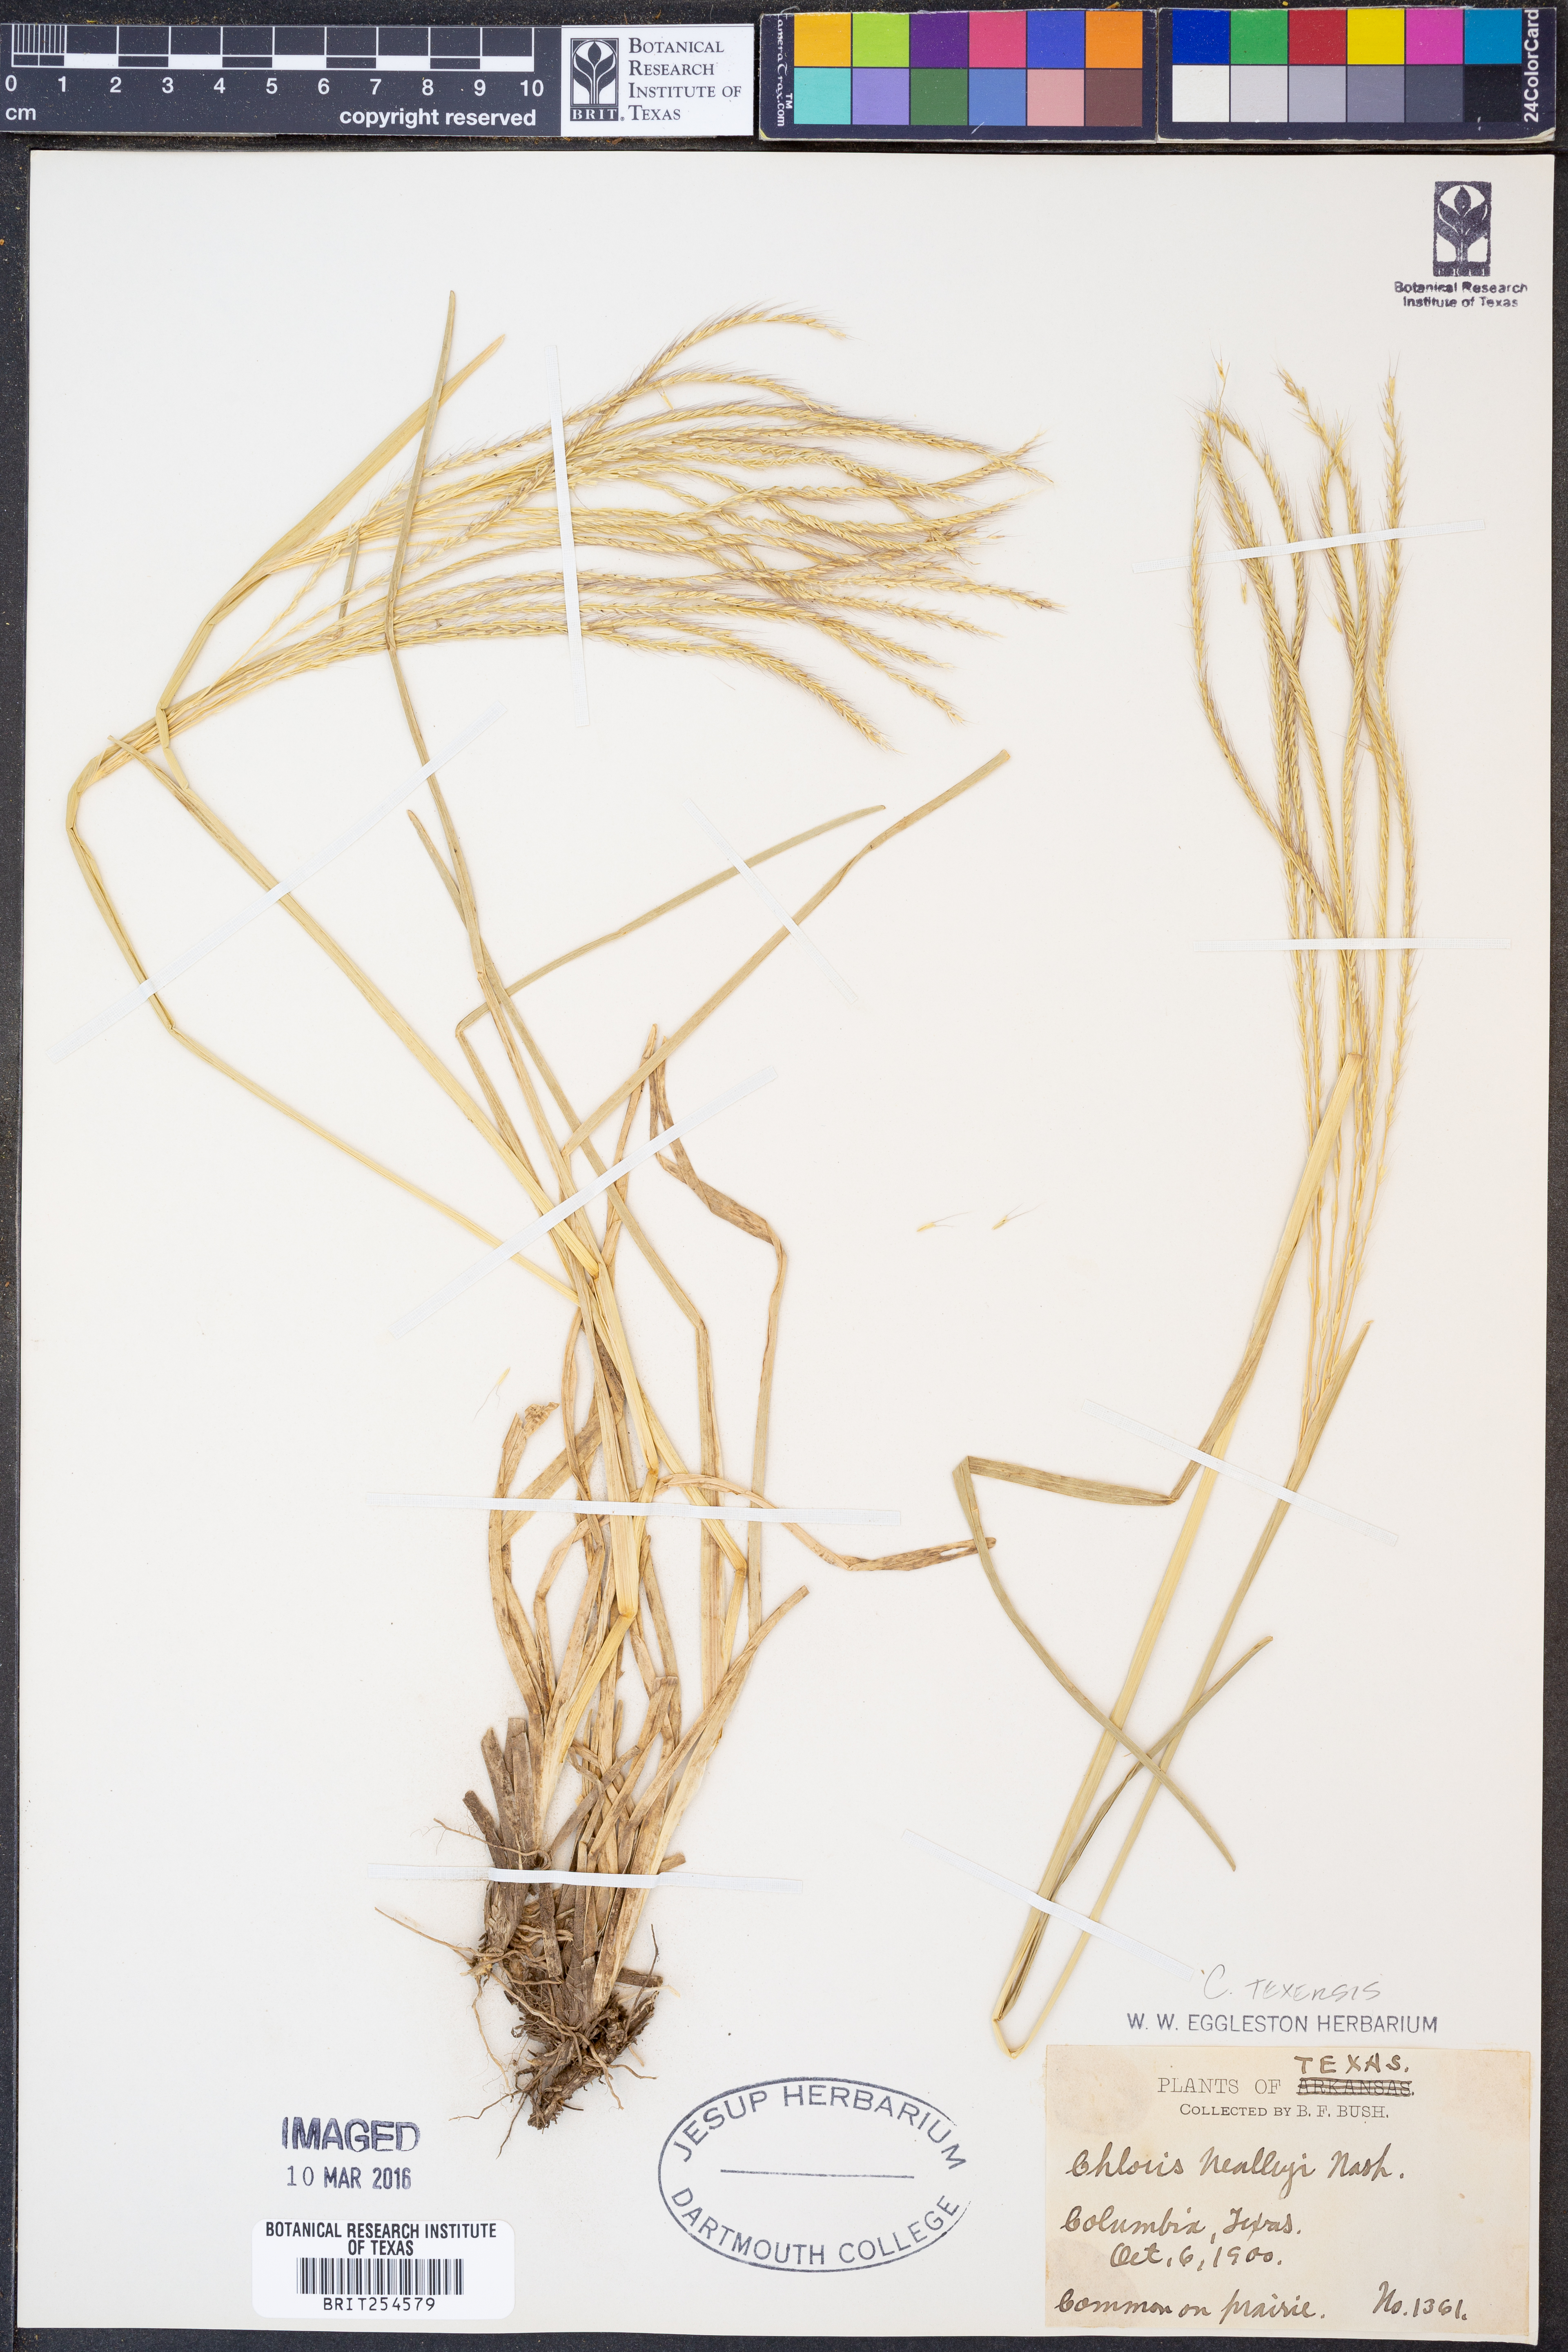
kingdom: Plantae
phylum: Tracheophyta
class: Liliopsida
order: Poales
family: Poaceae
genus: Chloris
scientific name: Chloris texensis
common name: Texas windmill grass
